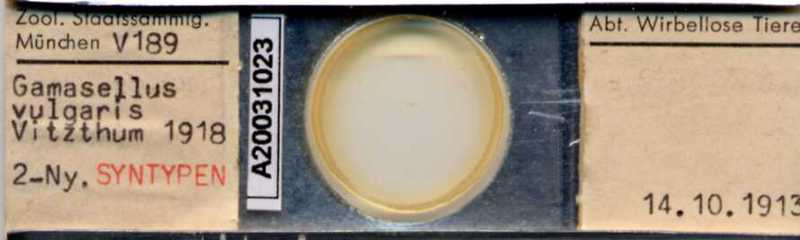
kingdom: Animalia
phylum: Arthropoda
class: Arachnida
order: Mesostigmata
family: Ologamasidae
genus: Gamasellus
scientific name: Gamasellus
